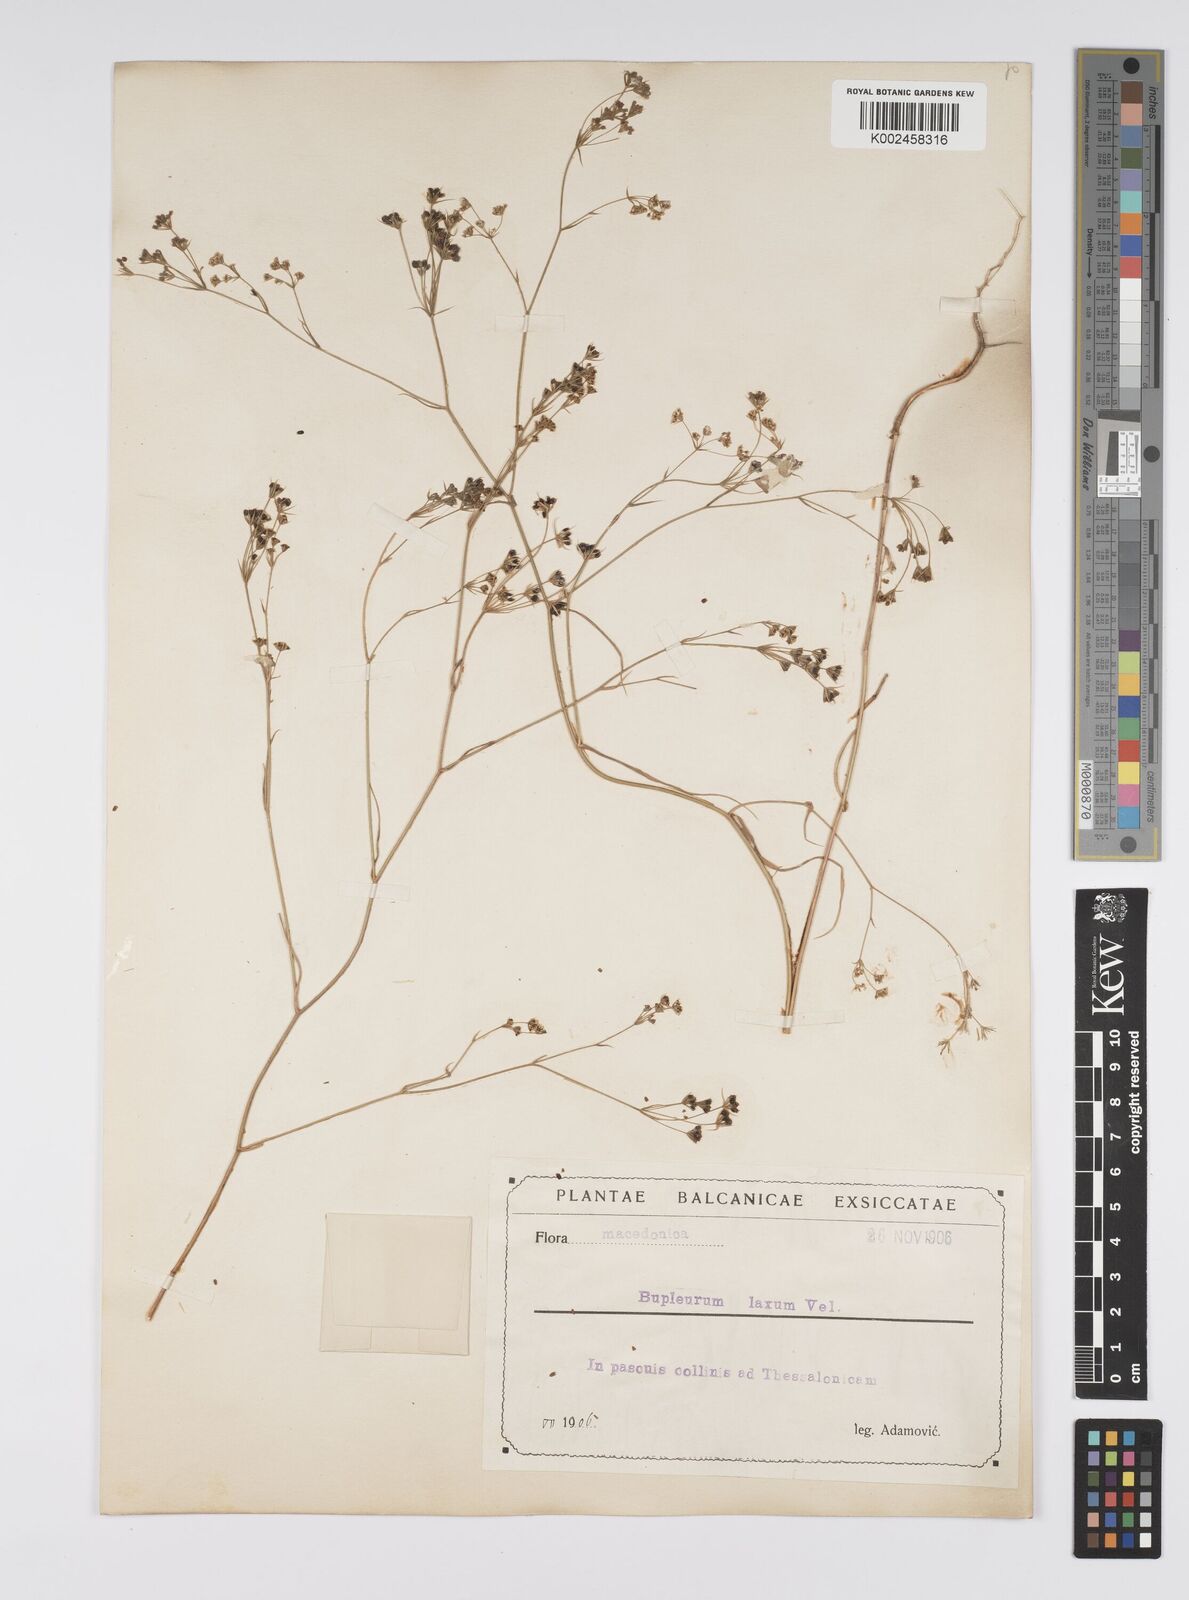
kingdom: Plantae
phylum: Tracheophyta
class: Magnoliopsida
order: Apiales
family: Apiaceae
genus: Bupleurum
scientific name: Bupleurum commutatum
